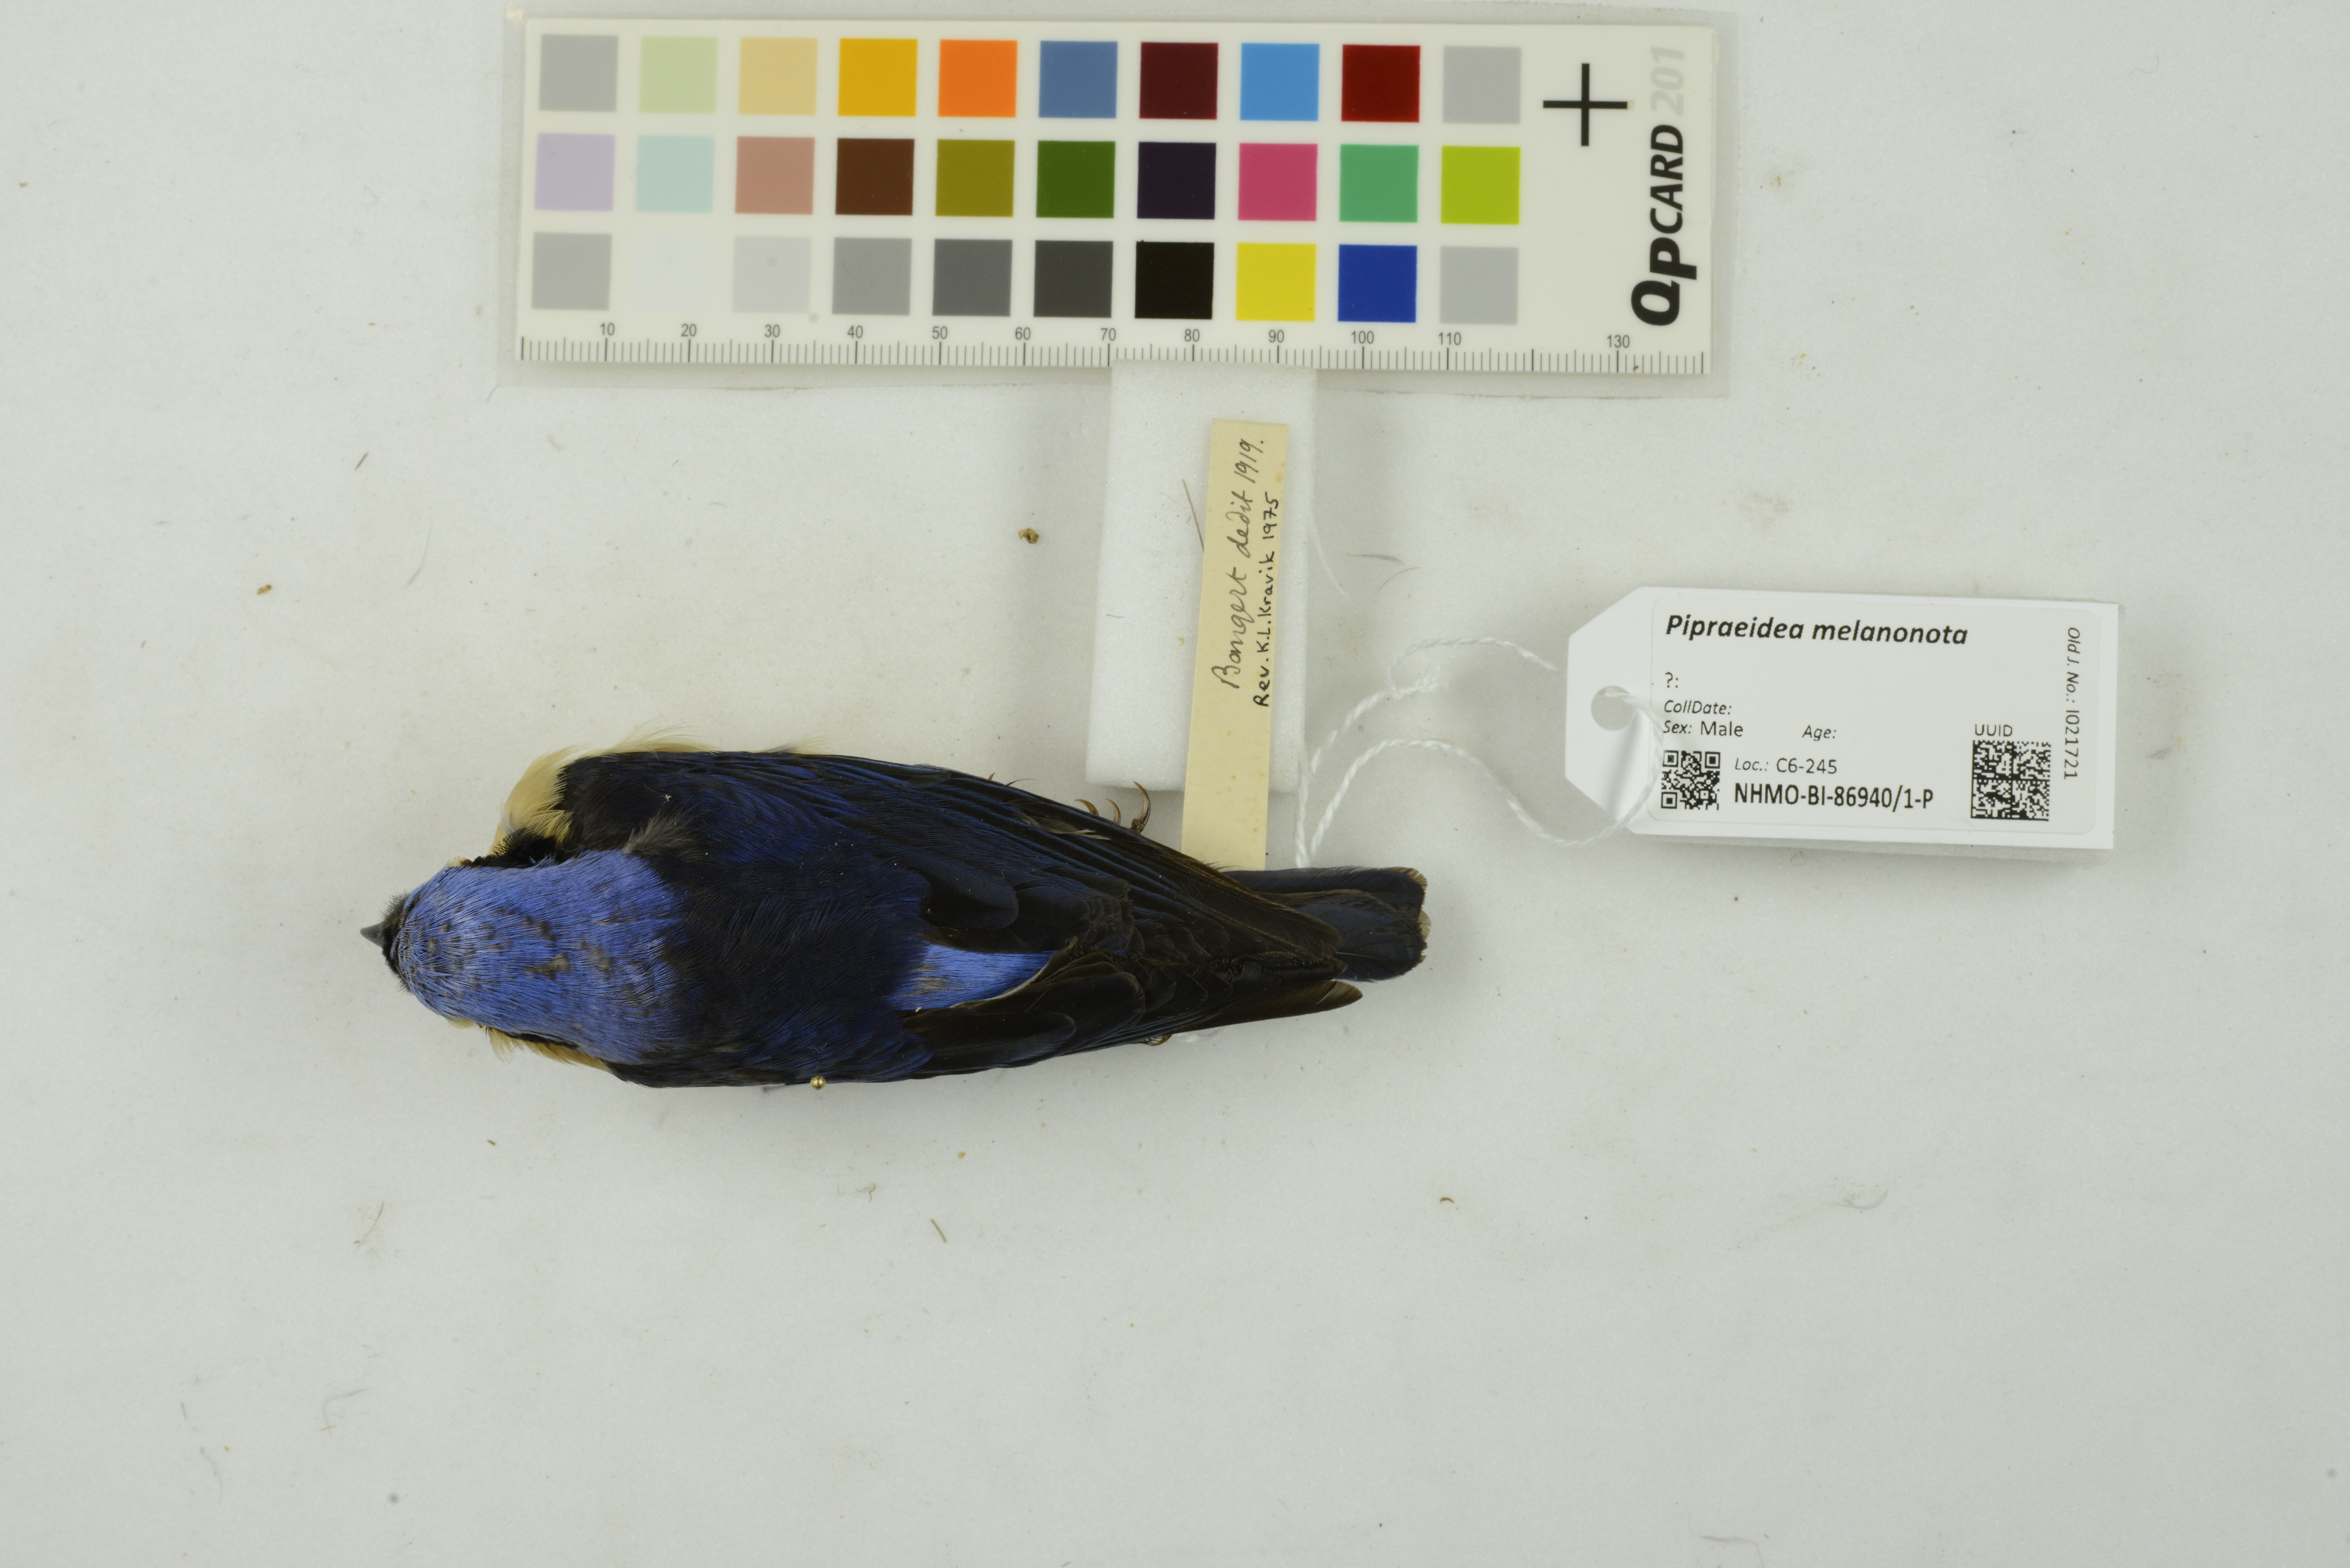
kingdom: Animalia
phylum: Chordata
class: Aves
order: Passeriformes
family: Thraupidae
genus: Pipraeidea
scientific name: Pipraeidea melanonota
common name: Fawn-breasted tanager
